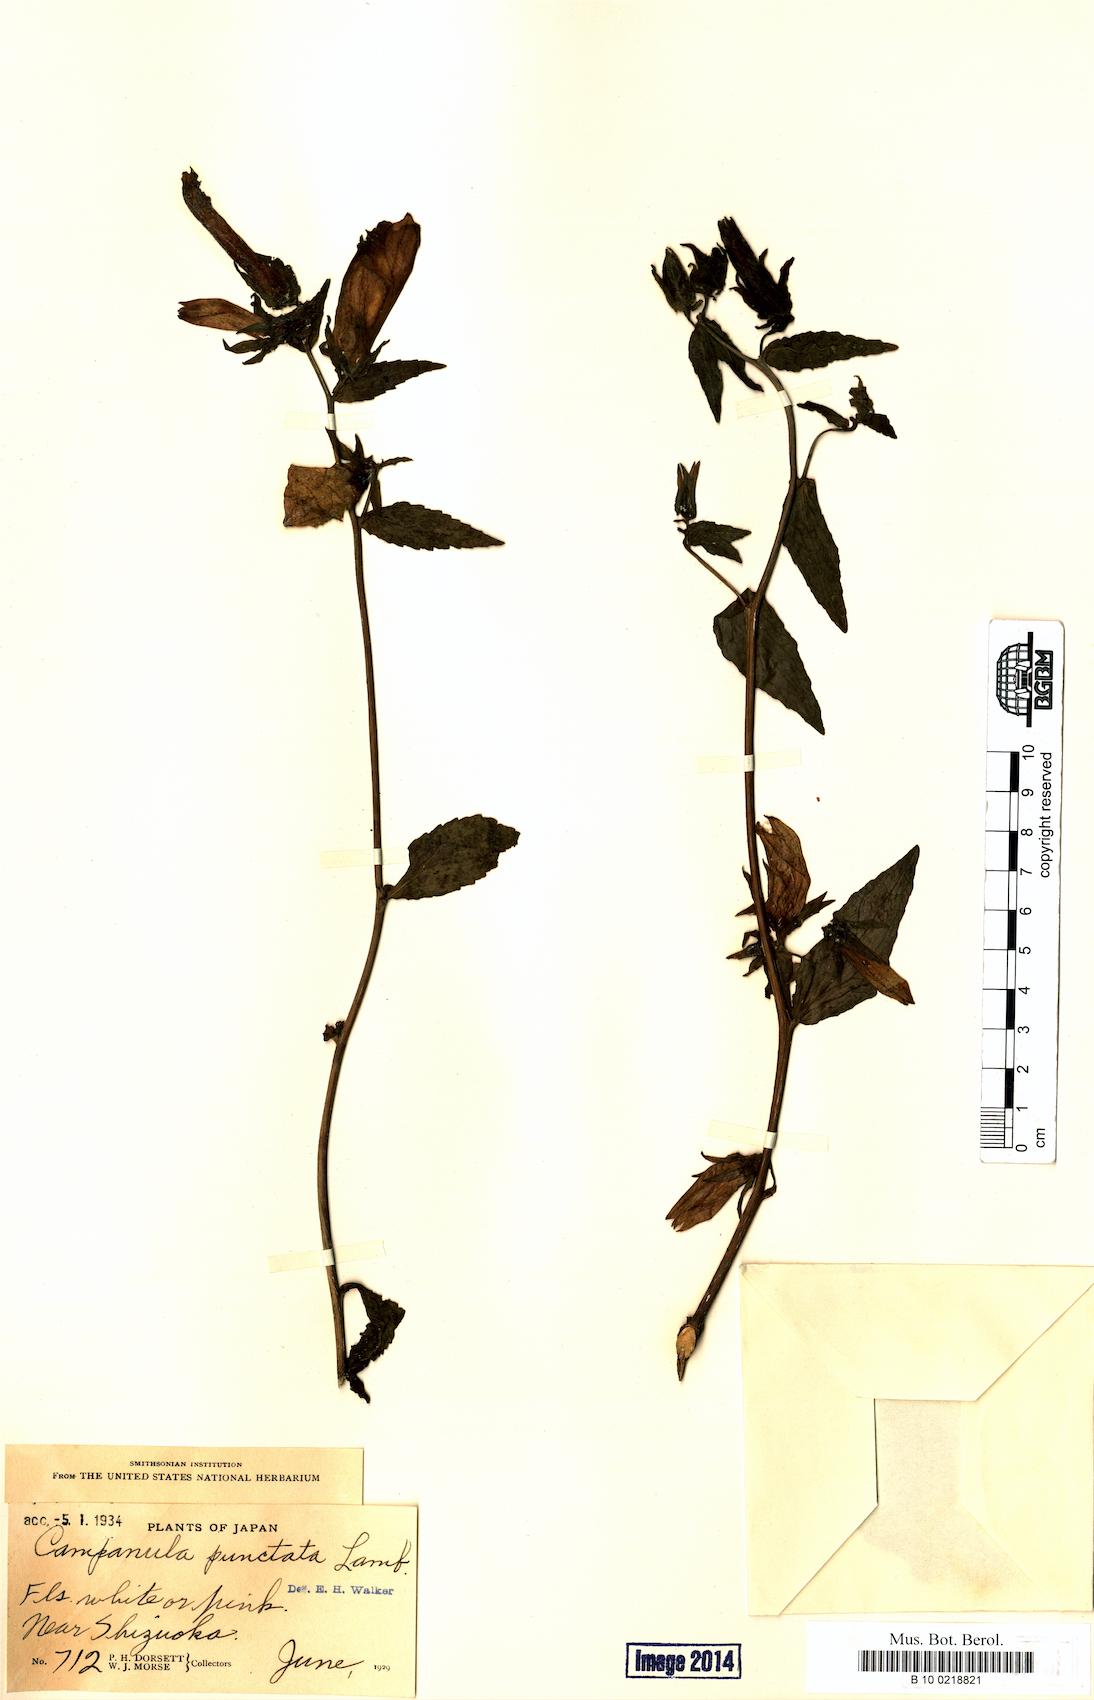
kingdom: Plantae
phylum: Tracheophyta
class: Magnoliopsida
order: Asterales
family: Campanulaceae
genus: Campanula
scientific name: Campanula punctata
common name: Spotted bellflower
